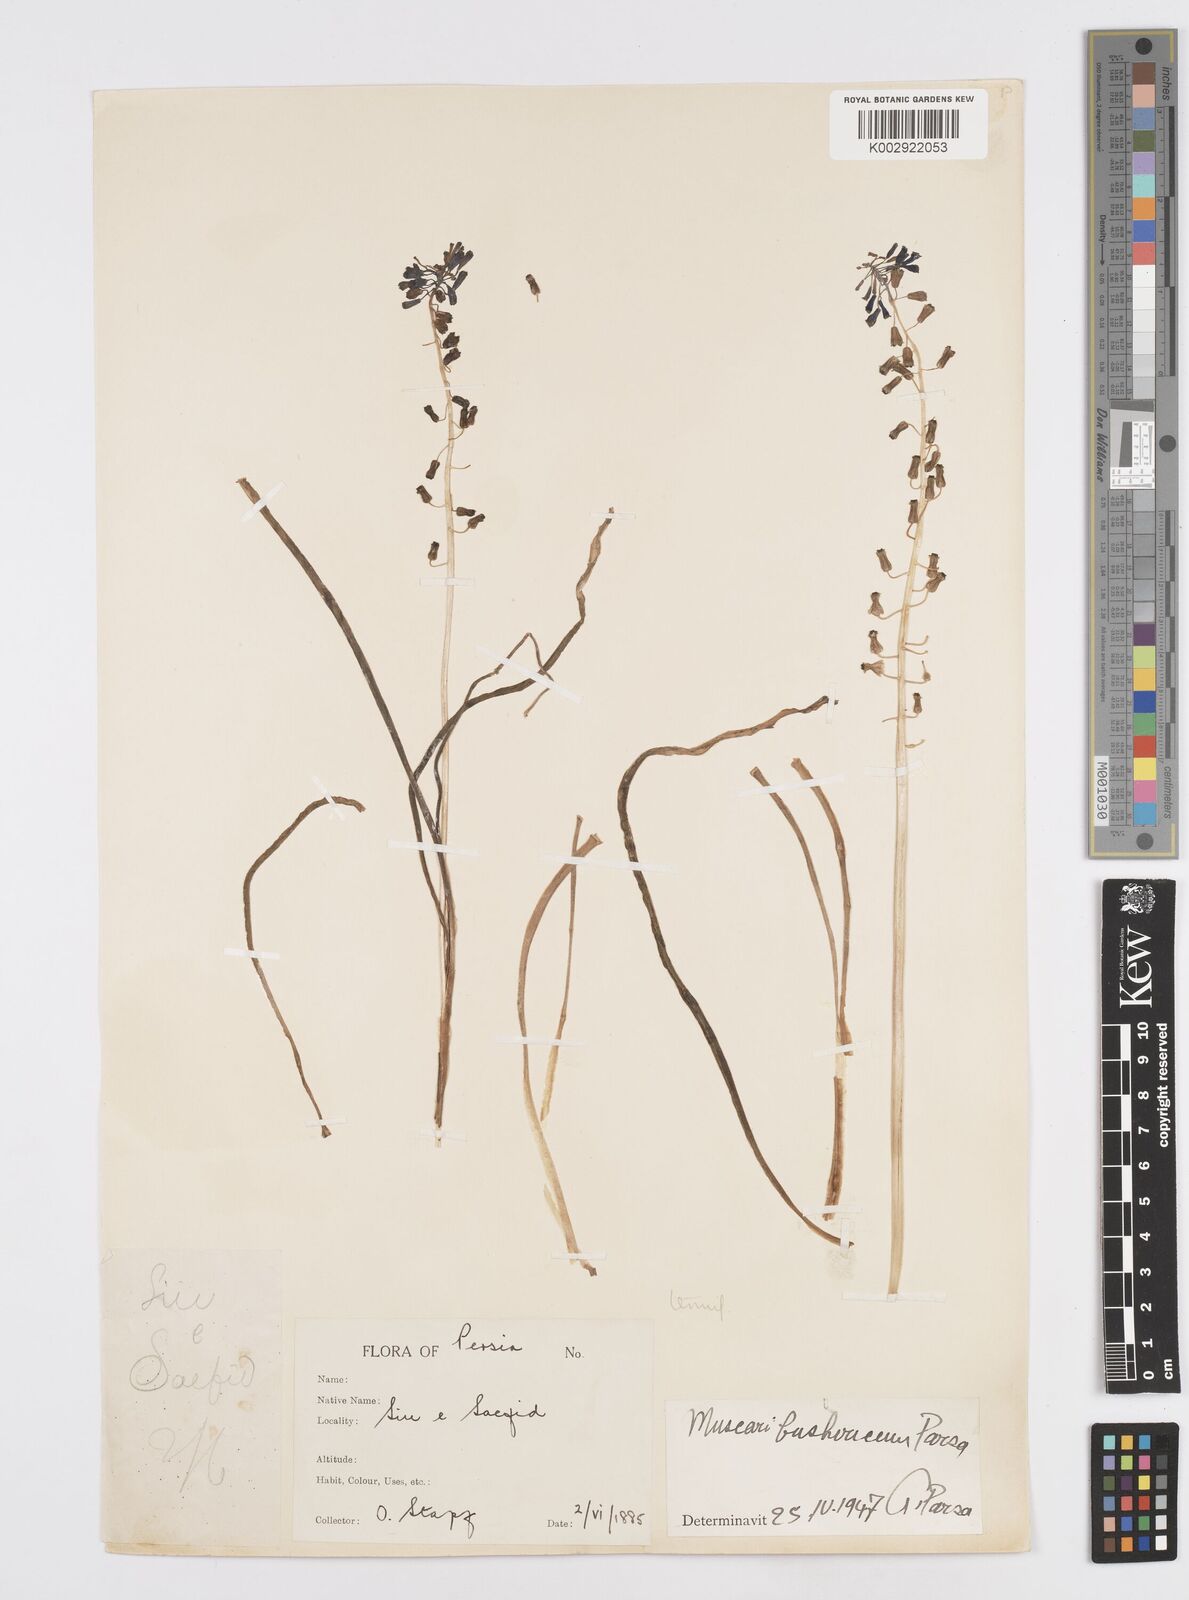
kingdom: Animalia
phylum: Mollusca
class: Cephalopoda
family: Neocomitidae
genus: Leopoldia
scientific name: Leopoldia
